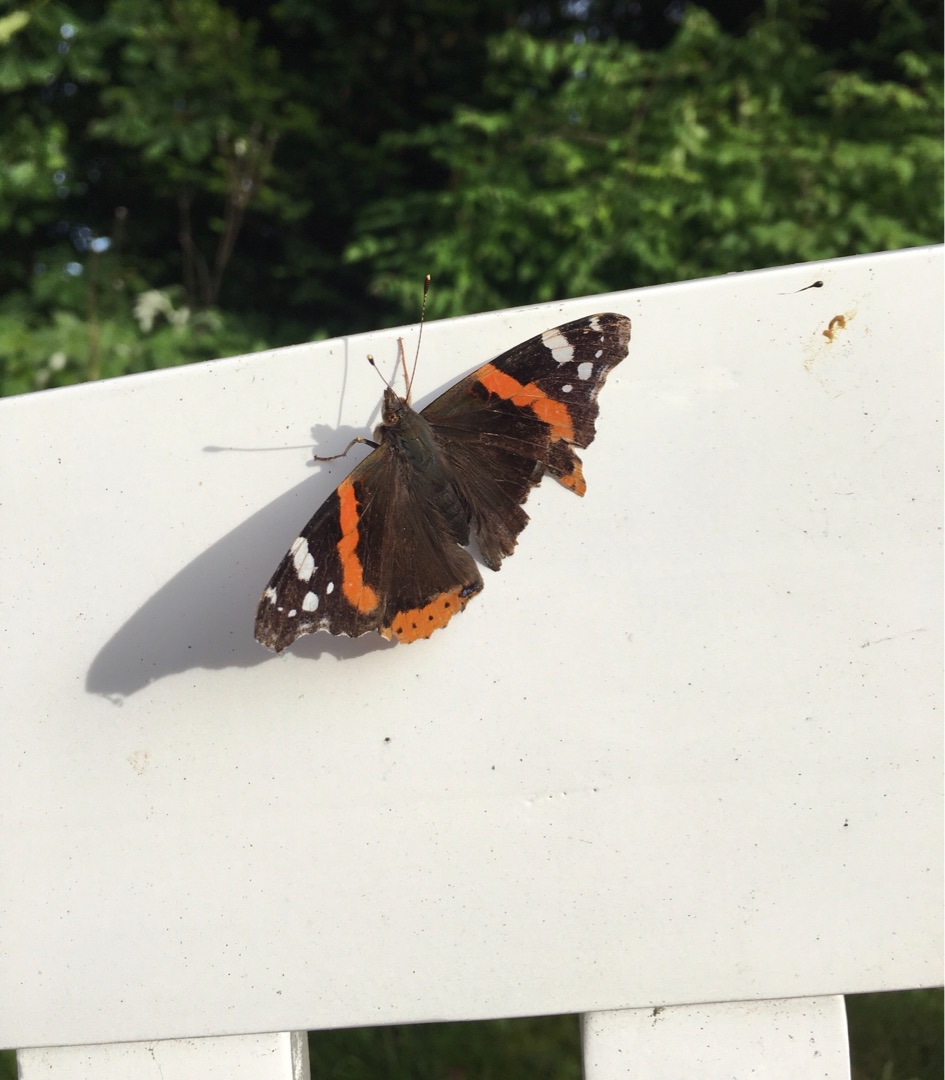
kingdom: Animalia
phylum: Arthropoda
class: Insecta
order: Lepidoptera
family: Nymphalidae
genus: Vanessa
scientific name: Vanessa atalanta
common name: Admiral
